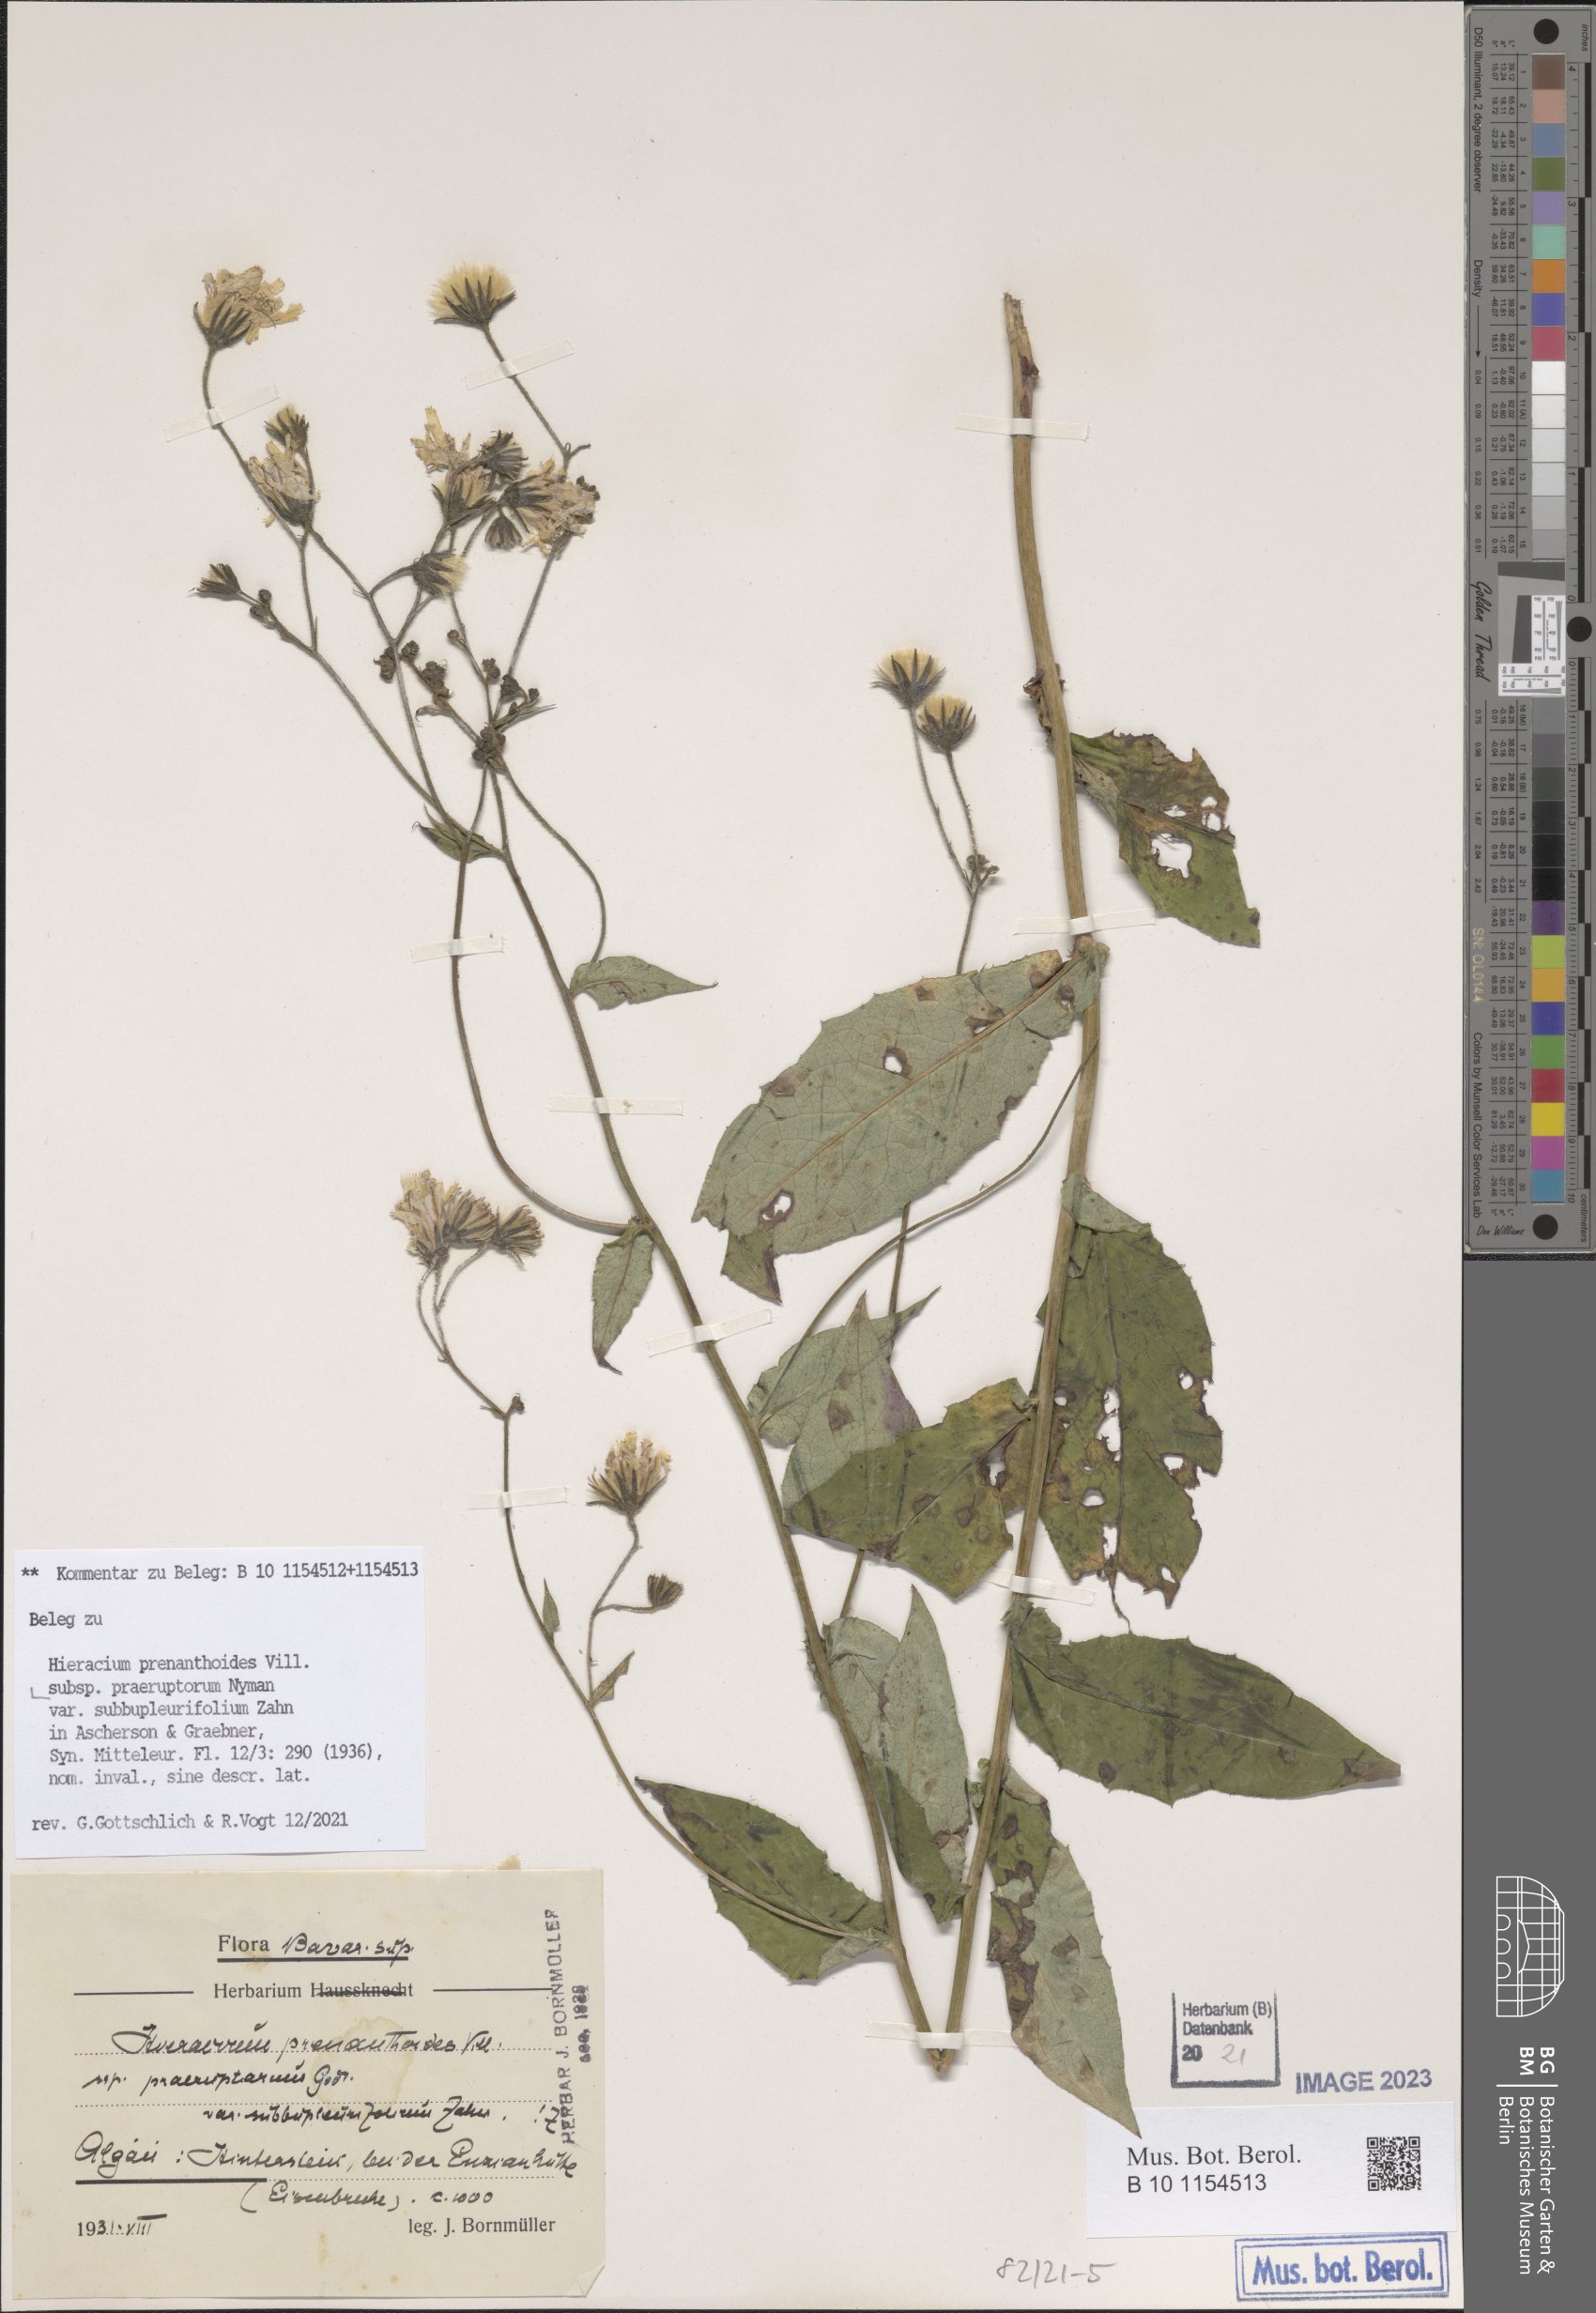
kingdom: Plantae
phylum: Tracheophyta
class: Magnoliopsida
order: Asterales
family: Asteraceae
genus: Hieracium
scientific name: Hieracium prenanthoides
